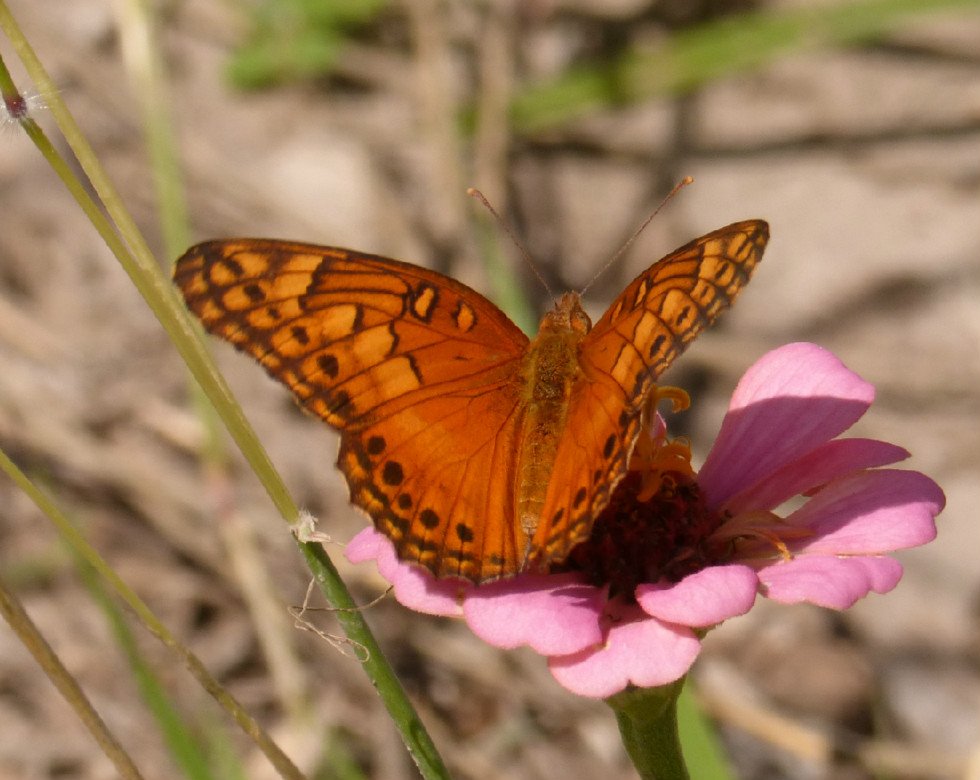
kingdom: Animalia
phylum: Arthropoda
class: Insecta
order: Lepidoptera
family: Nymphalidae
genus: Euptoieta
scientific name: Euptoieta hegesia
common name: Mexican Fritillary
